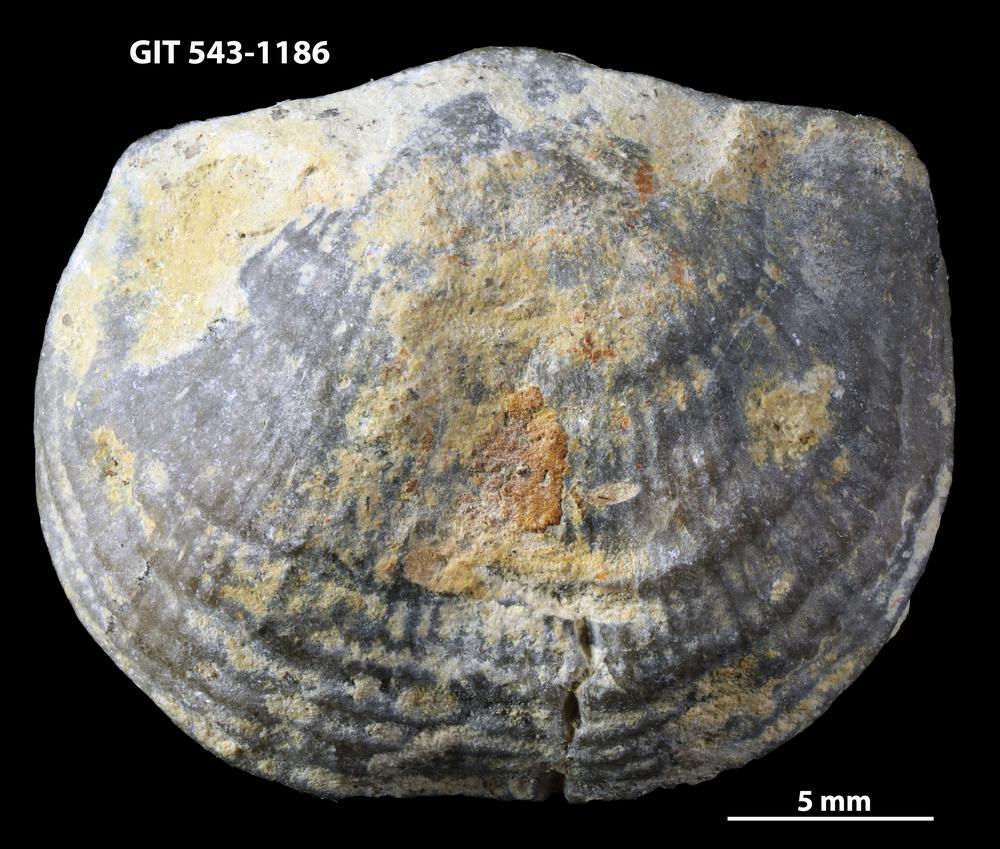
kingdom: Animalia
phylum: Brachiopoda
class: Rhynchonellata
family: Clitambonitidae
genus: Vellamo
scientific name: Vellamo oandoensis
